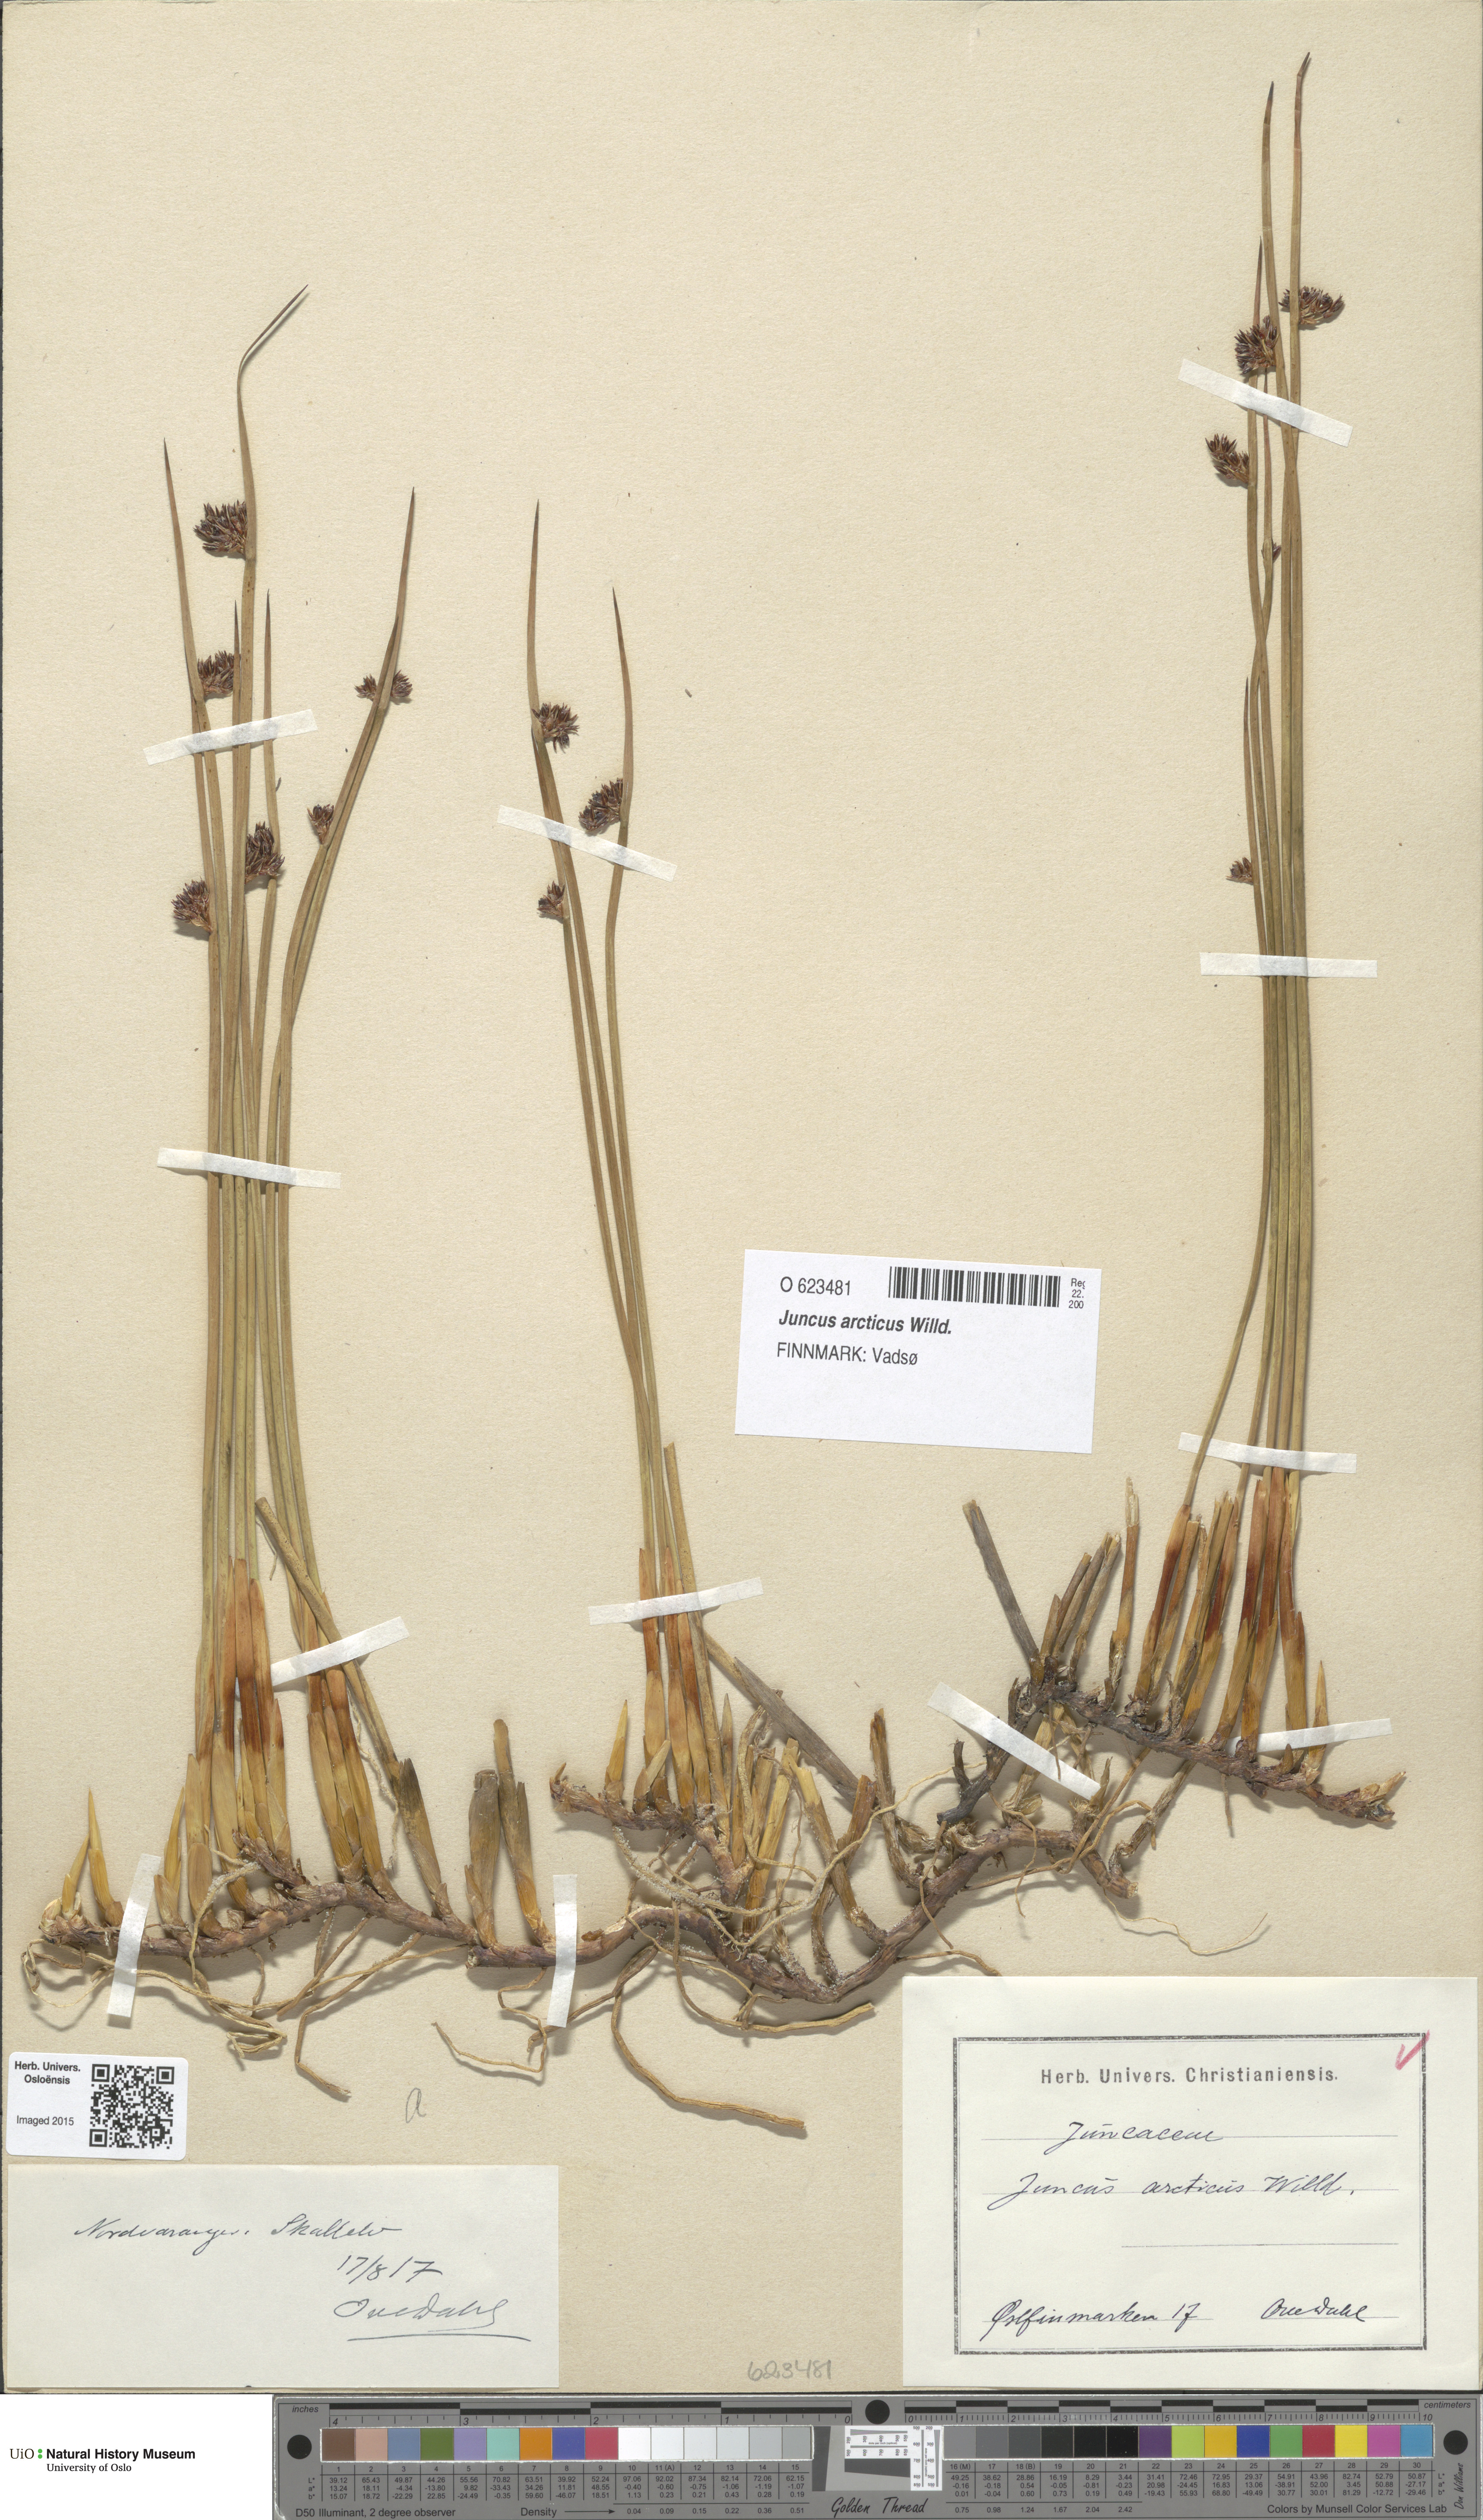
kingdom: Plantae
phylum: Tracheophyta
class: Liliopsida
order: Poales
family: Juncaceae
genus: Juncus
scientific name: Juncus arcticus
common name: Arctic rush
